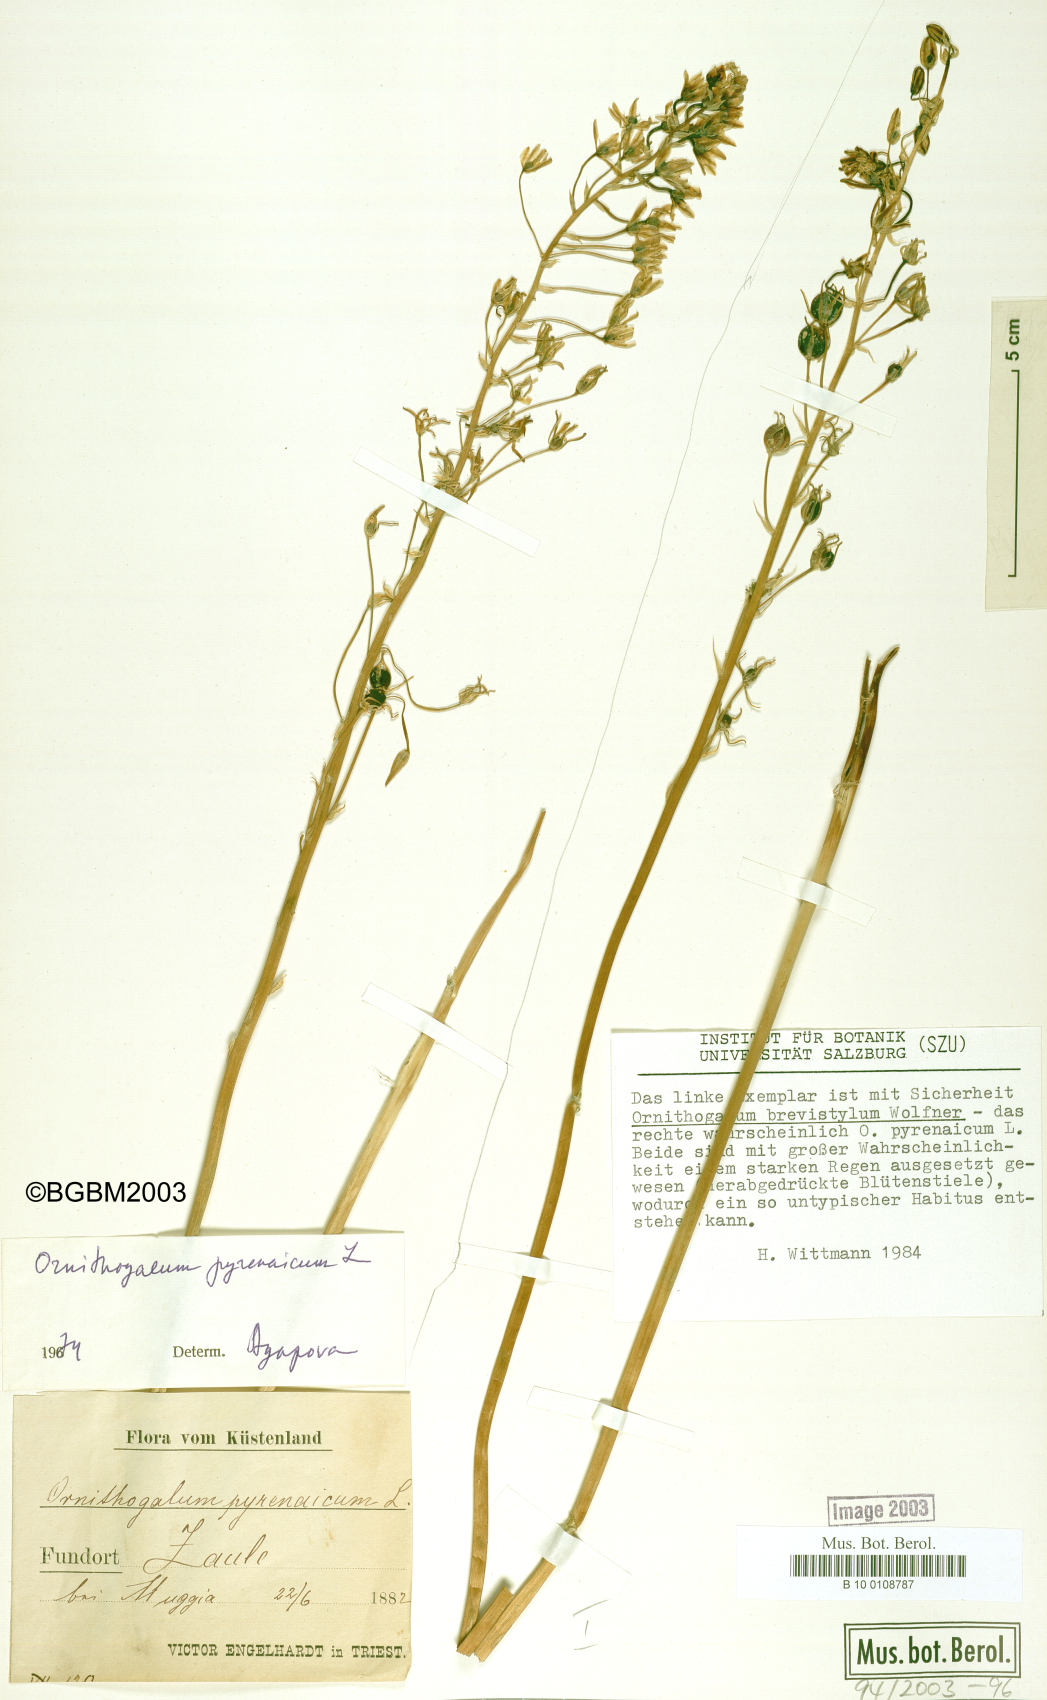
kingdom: Plantae
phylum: Tracheophyta
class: Liliopsida
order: Asparagales
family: Asparagaceae
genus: Ornithogalum
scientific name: Ornithogalum pyrenaicum
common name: Spiked star-of-bethlehem
